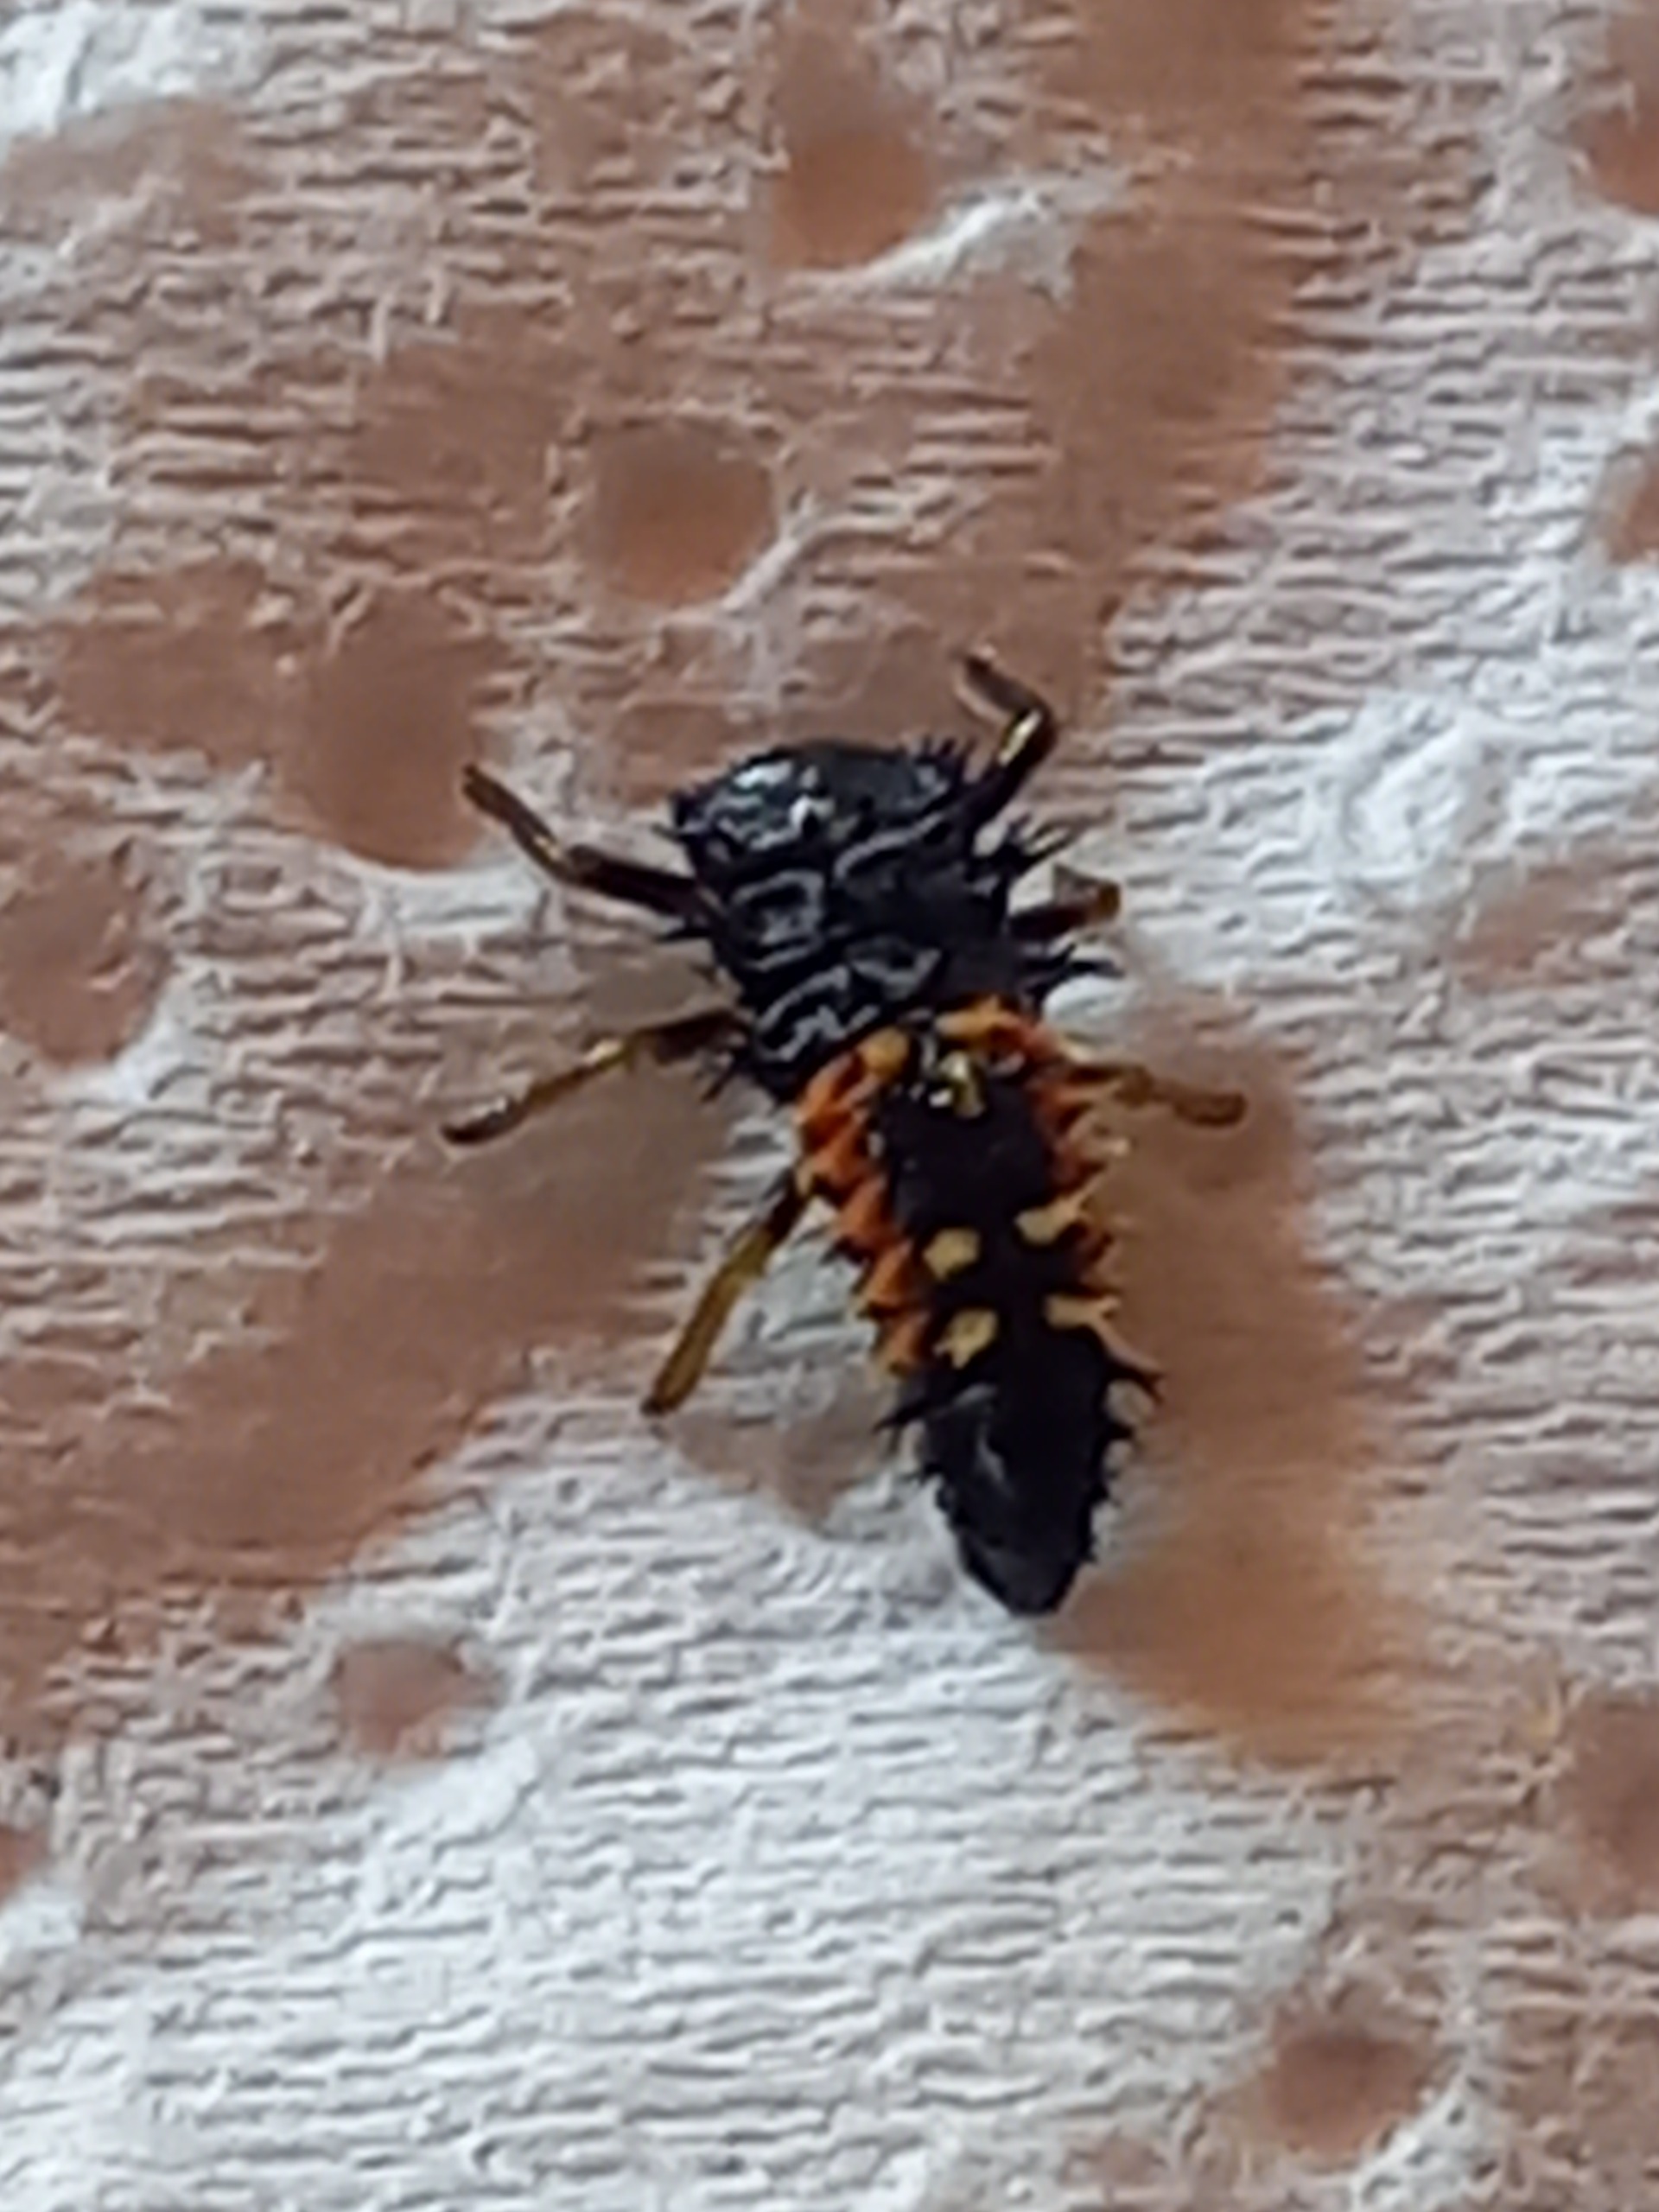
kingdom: Animalia
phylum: Arthropoda
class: Insecta
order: Coleoptera
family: Coccinellidae
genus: Harmonia
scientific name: Harmonia axyridis
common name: Harlekinmariehøne
